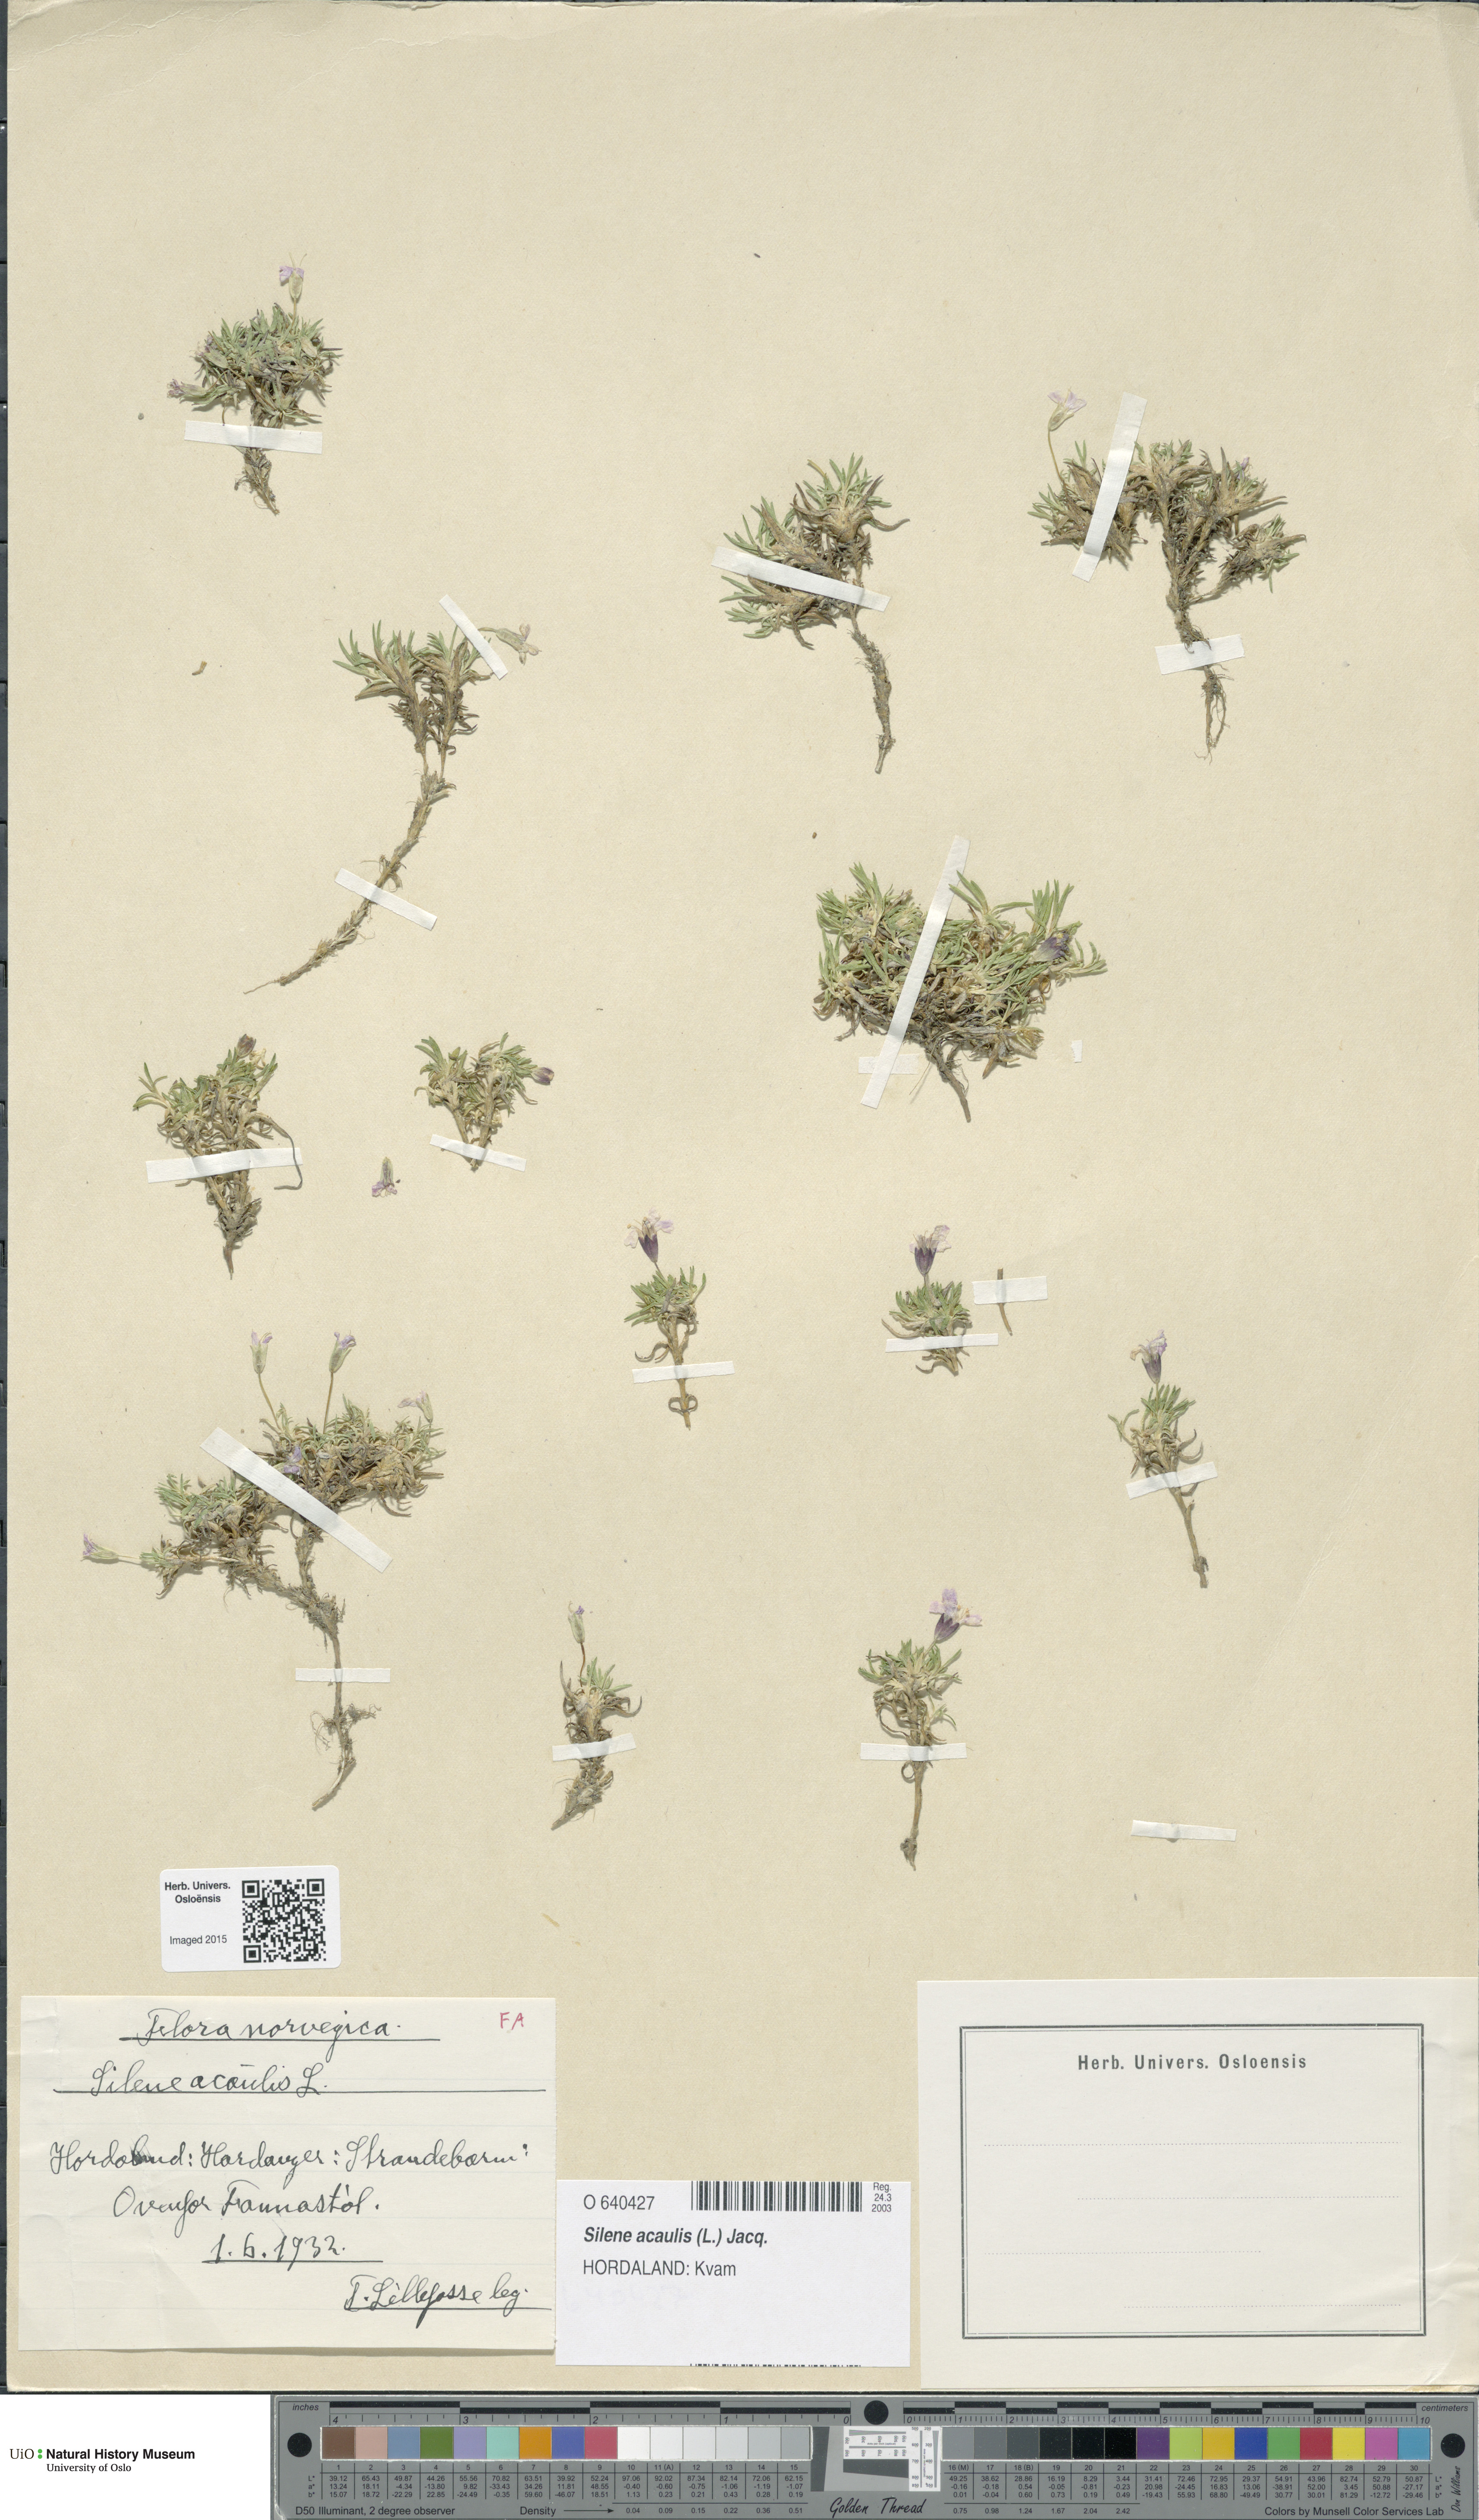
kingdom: Plantae
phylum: Tracheophyta
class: Magnoliopsida
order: Caryophyllales
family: Caryophyllaceae
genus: Silene
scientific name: Silene acaulis
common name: Moss campion
